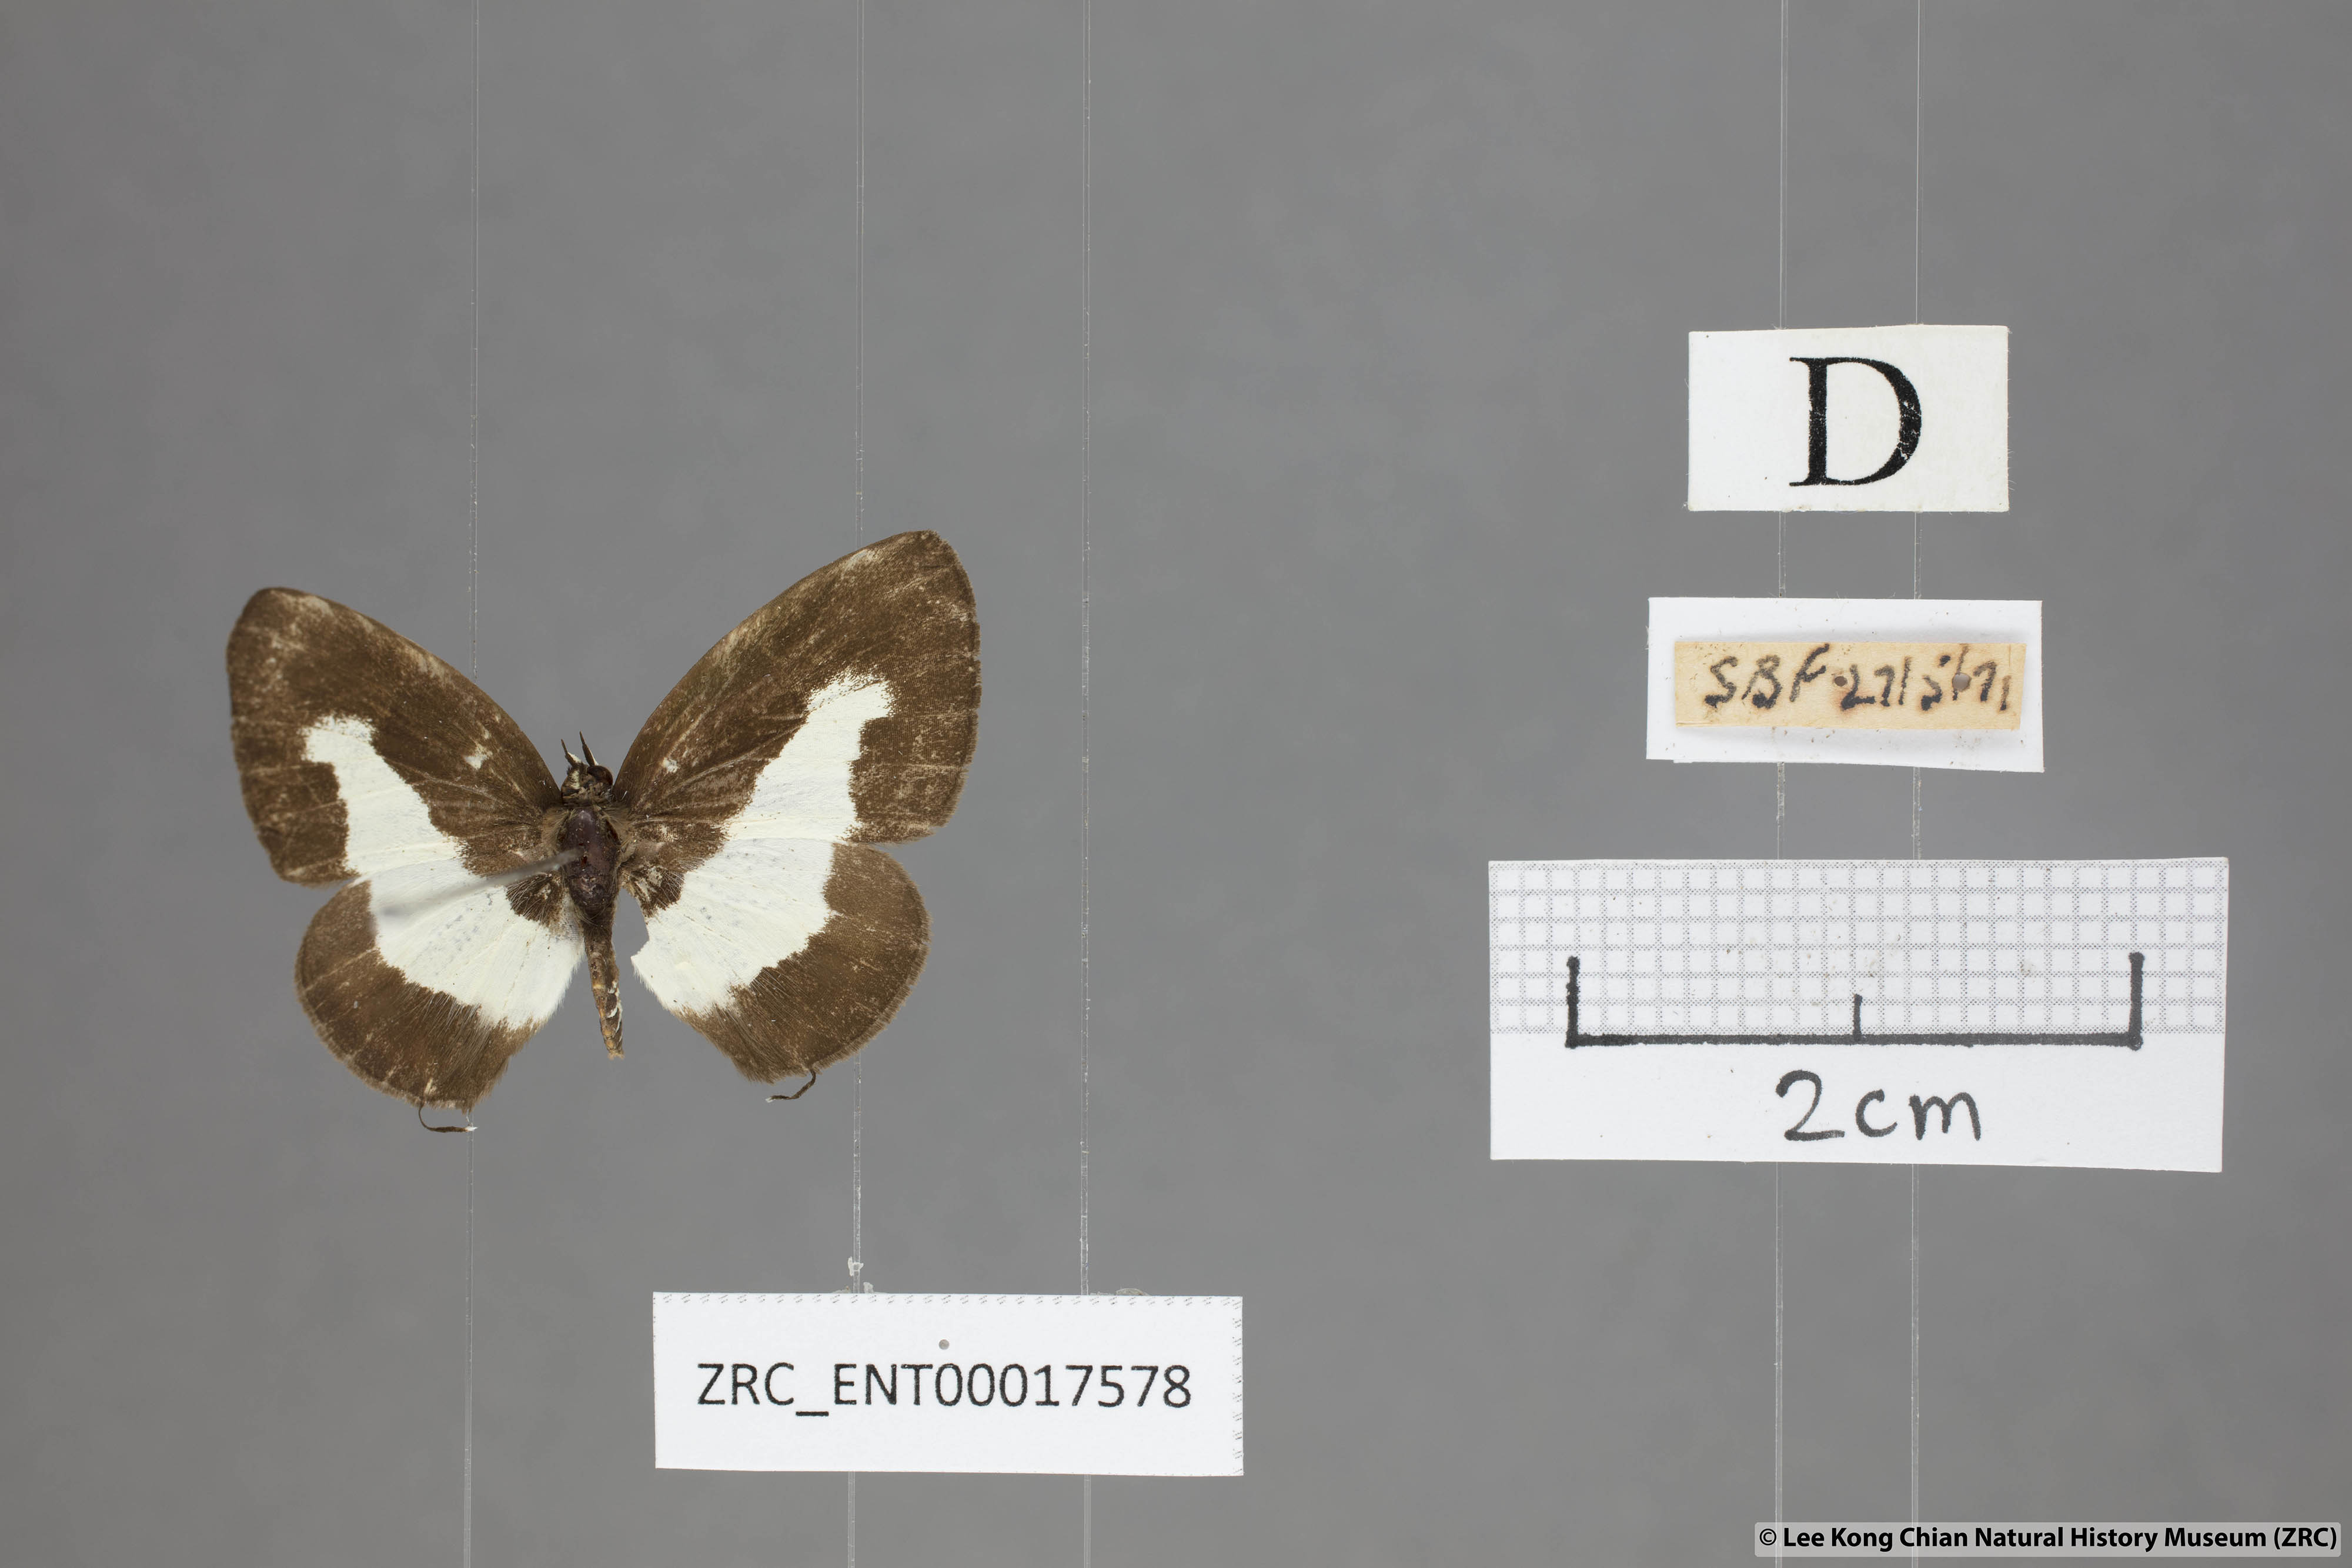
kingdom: Animalia
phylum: Arthropoda
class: Insecta
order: Lepidoptera
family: Lycaenidae
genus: Caleta
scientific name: Caleta elna
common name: Elbowed pierrot
